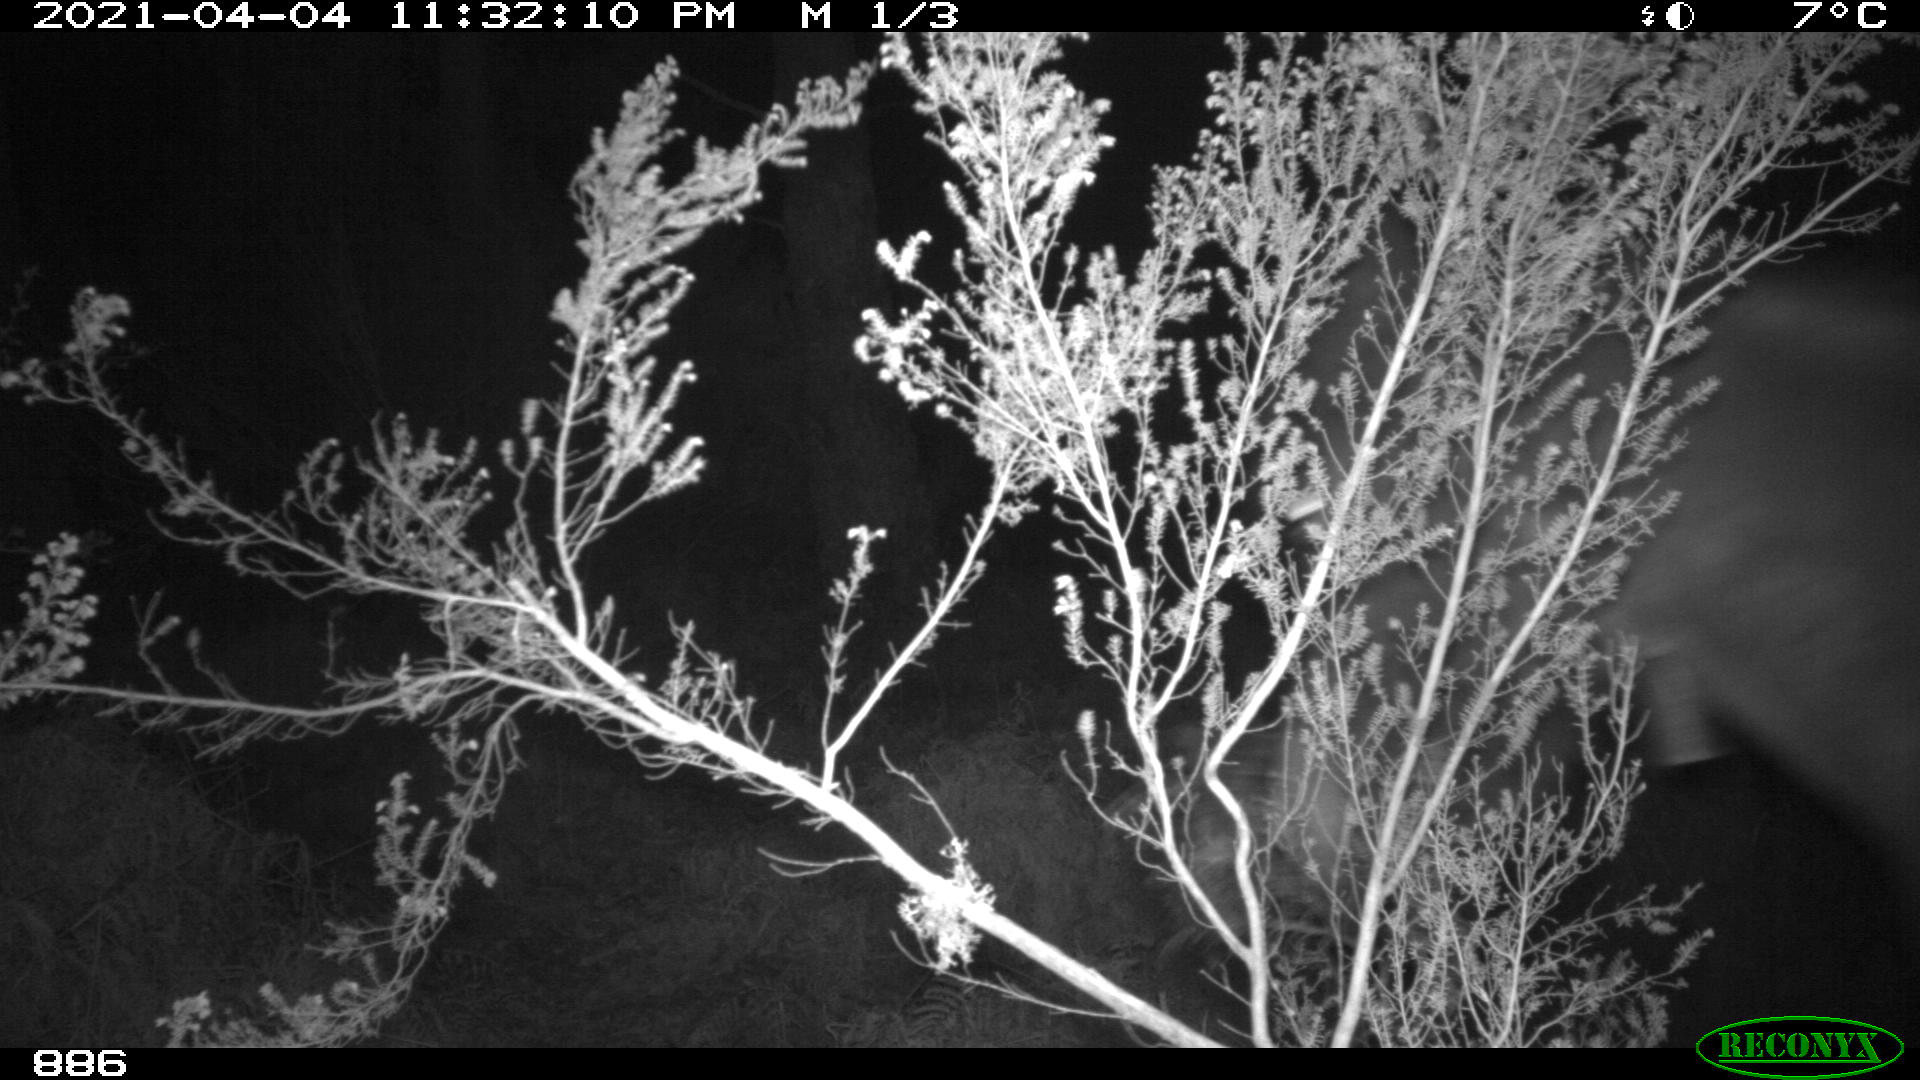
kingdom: Animalia
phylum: Chordata
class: Mammalia
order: Perissodactyla
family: Equidae
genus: Equus
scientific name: Equus caballus
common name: Horse
